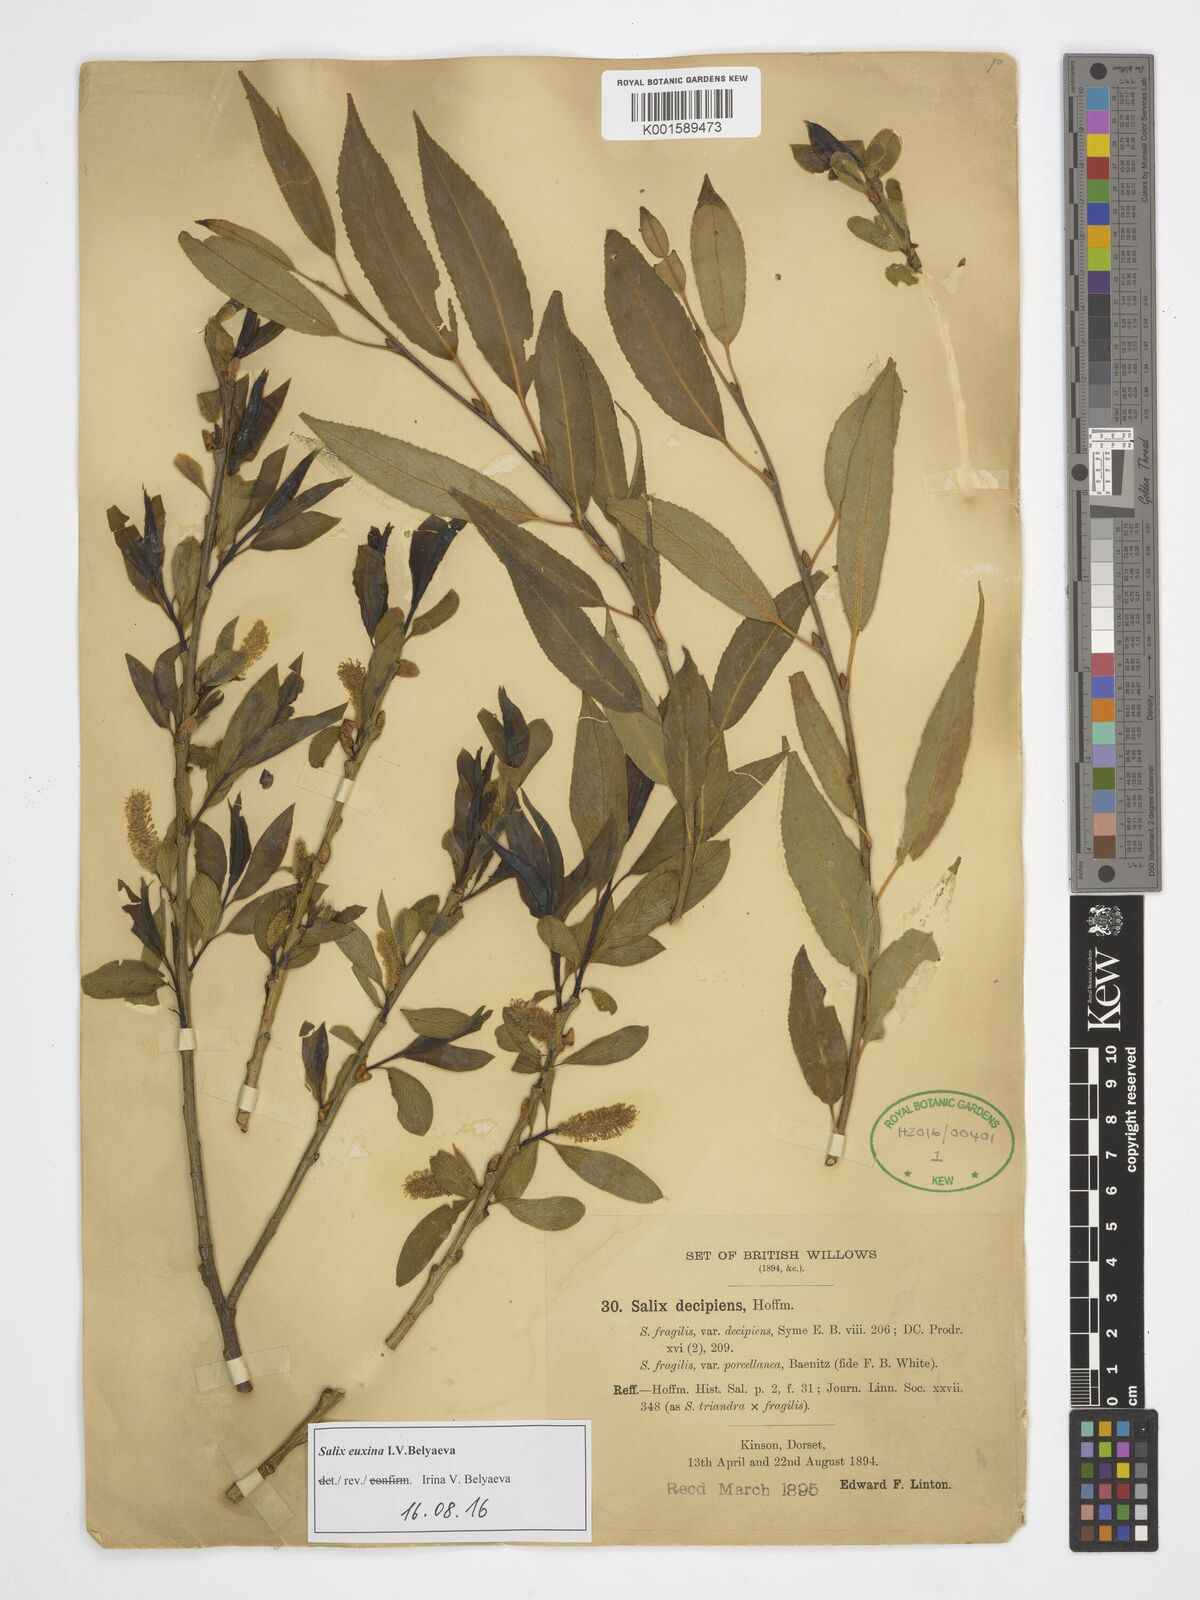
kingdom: Plantae
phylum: Tracheophyta
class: Magnoliopsida
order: Malpighiales
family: Salicaceae
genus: Salix
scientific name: Salix alba
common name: White willow
